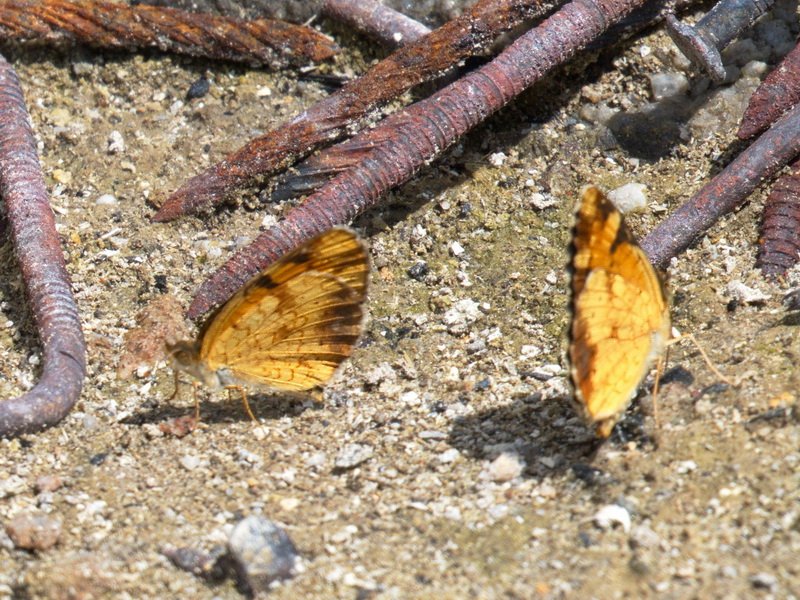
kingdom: Animalia
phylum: Arthropoda
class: Insecta
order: Lepidoptera
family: Nymphalidae
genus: Phyciodes
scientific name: Phyciodes tharos
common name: Northern Crescent
